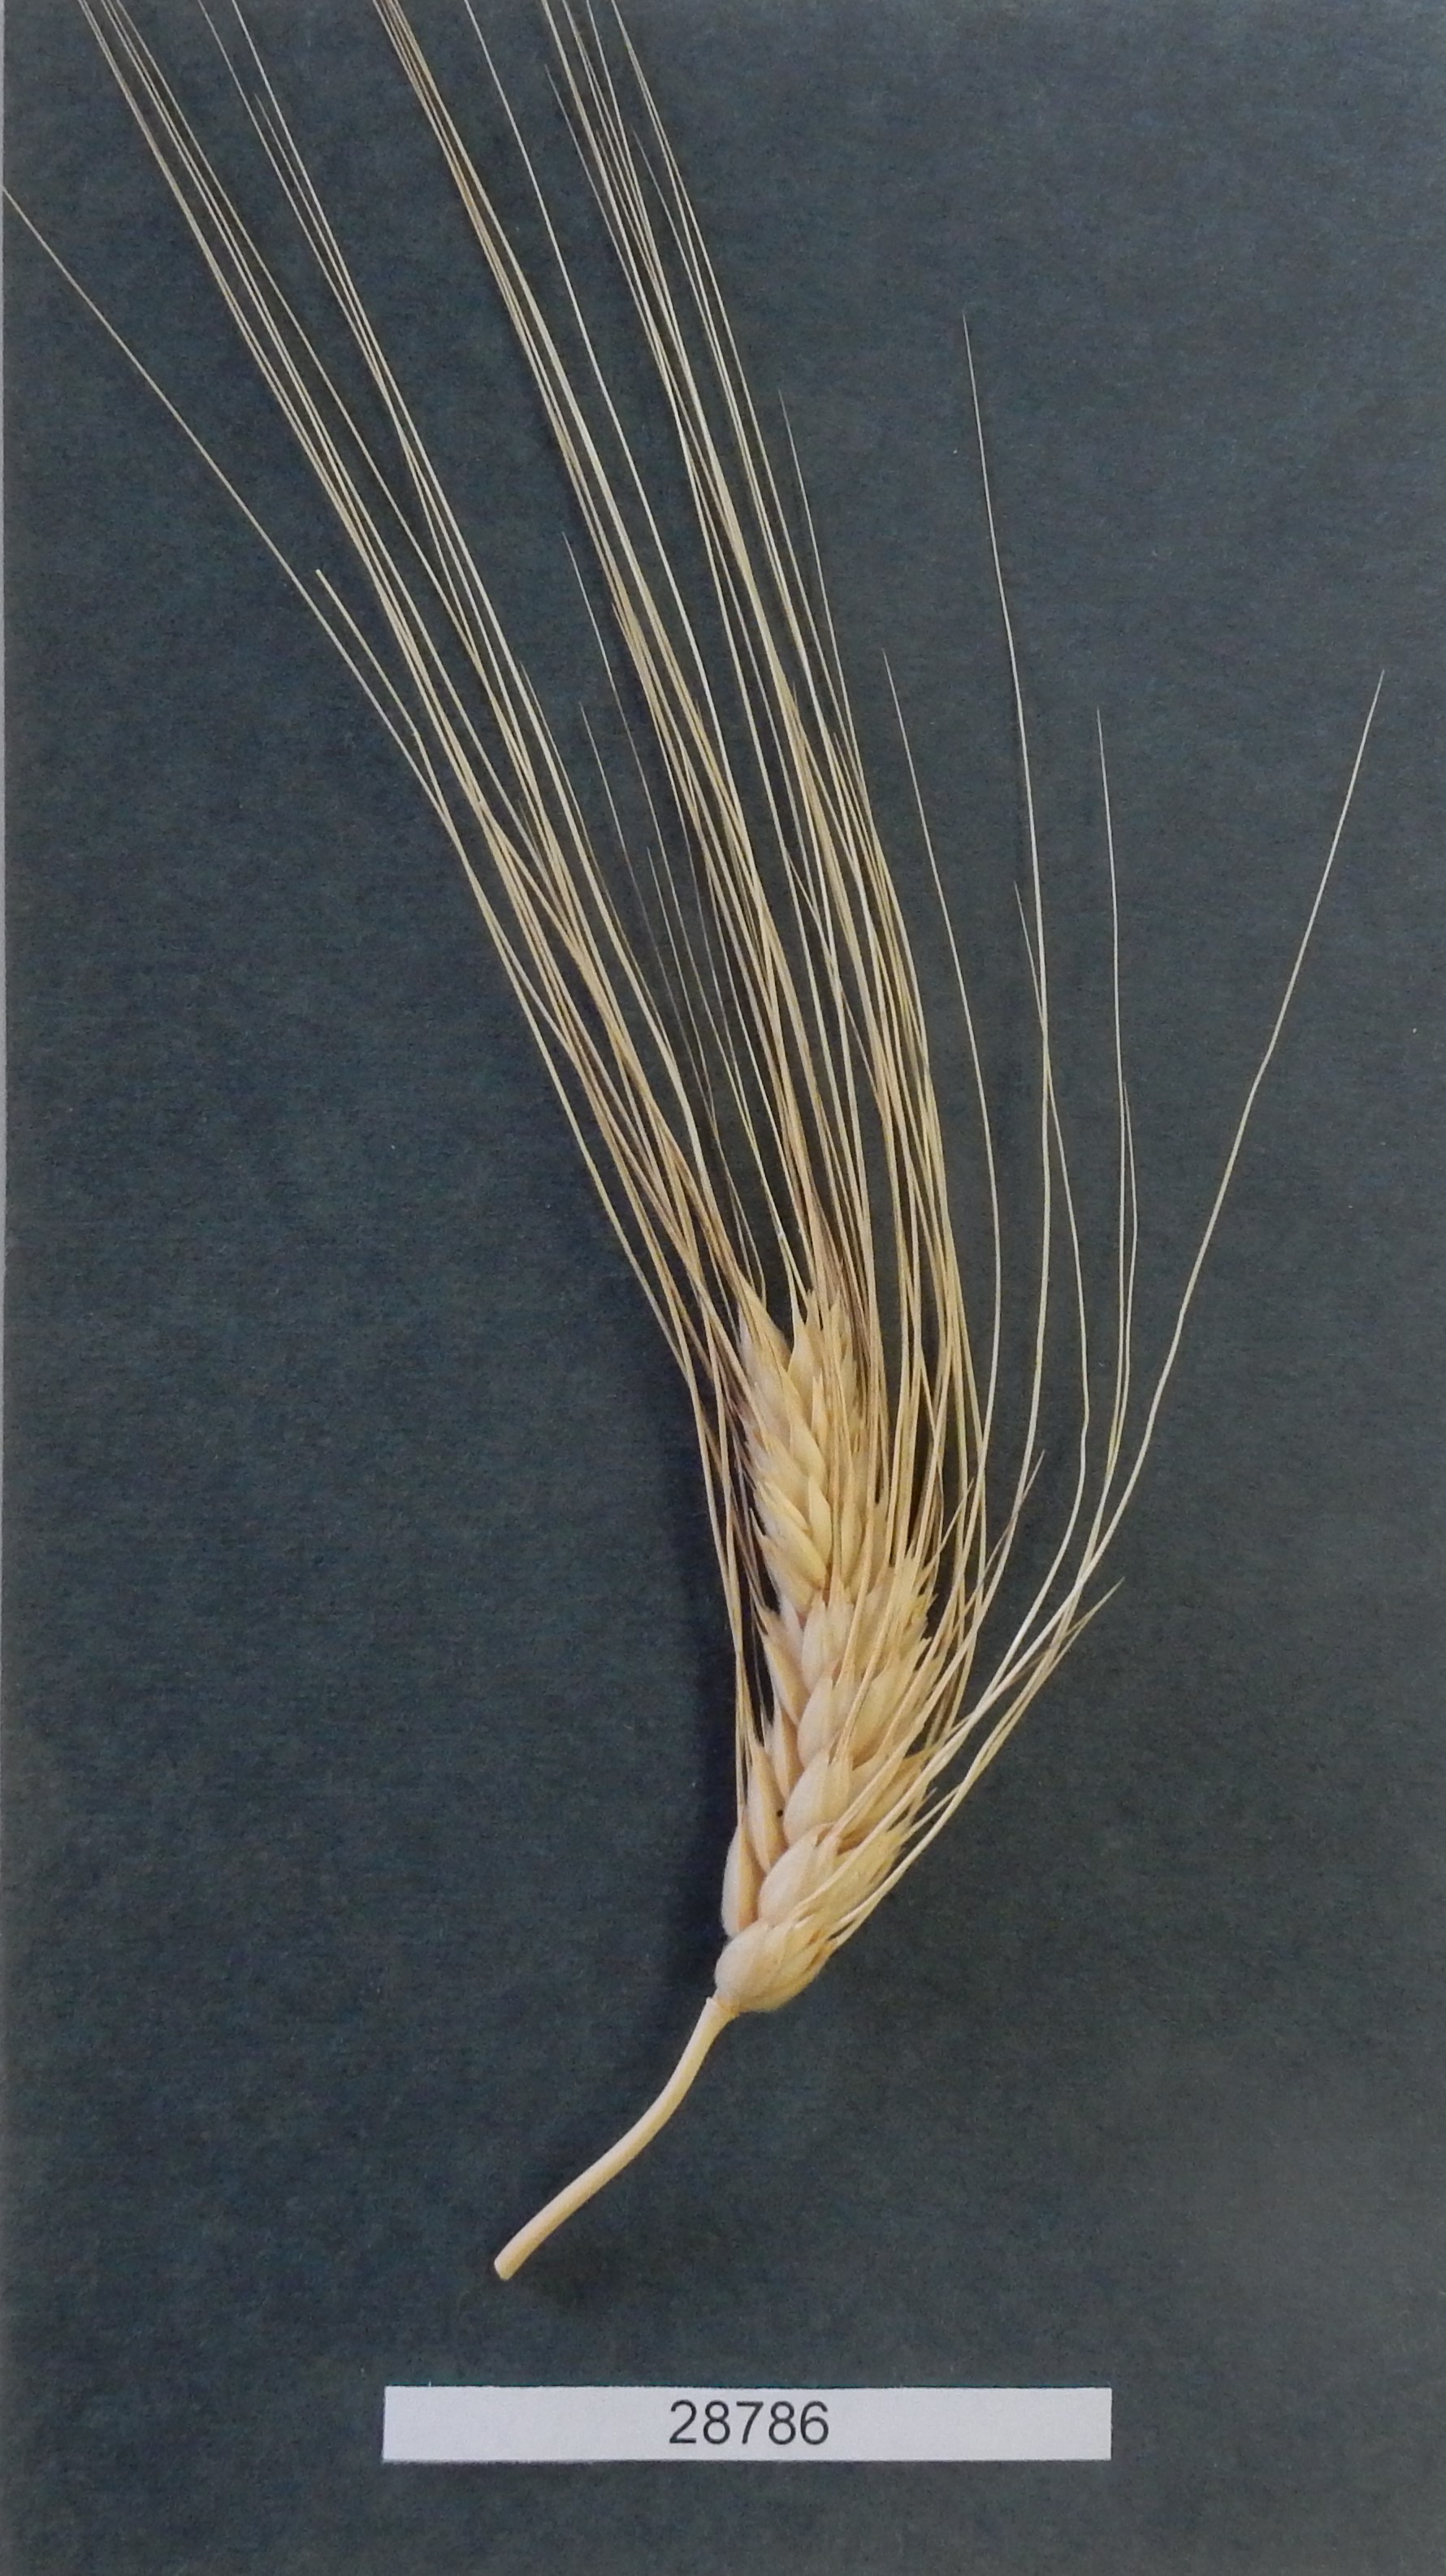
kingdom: Plantae
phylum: Tracheophyta
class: Liliopsida
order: Poales
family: Poaceae
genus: Triticum
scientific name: Triticum turgidum
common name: Wheat
